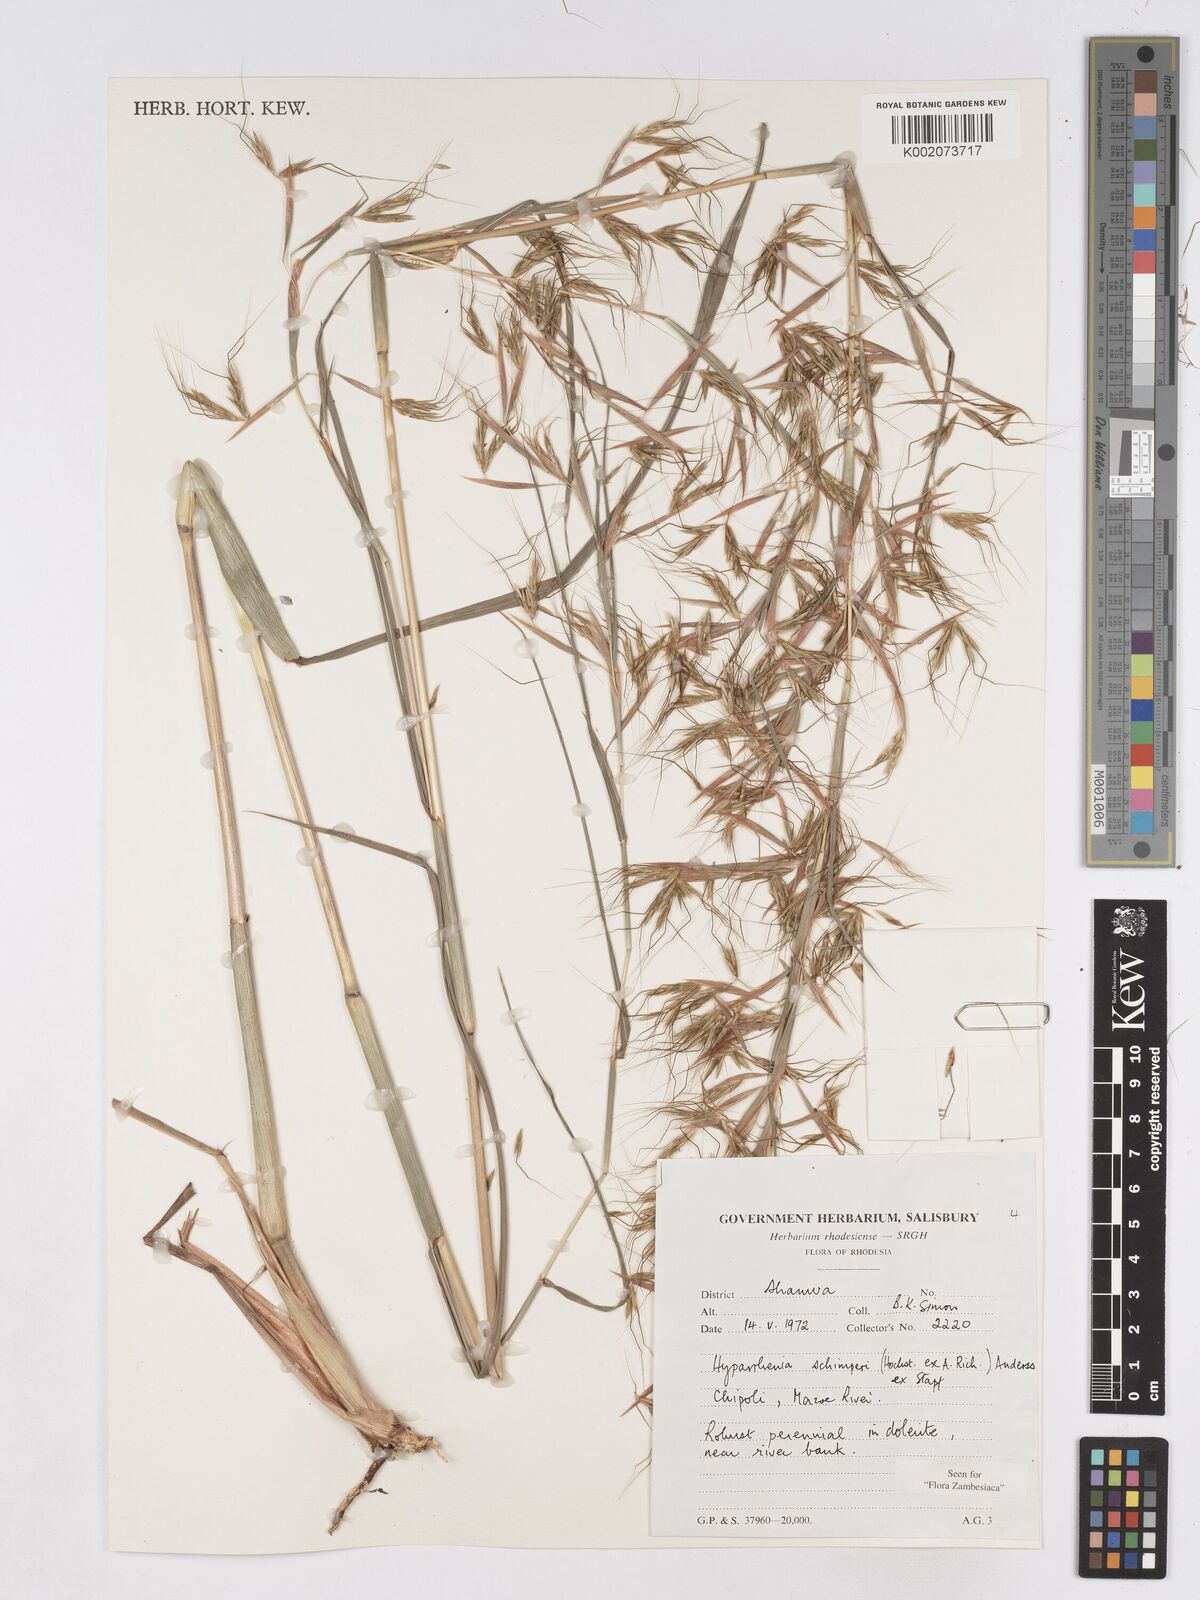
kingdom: Plantae
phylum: Tracheophyta
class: Liliopsida
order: Poales
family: Poaceae
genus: Hyparrhenia
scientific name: Hyparrhenia schimperi
